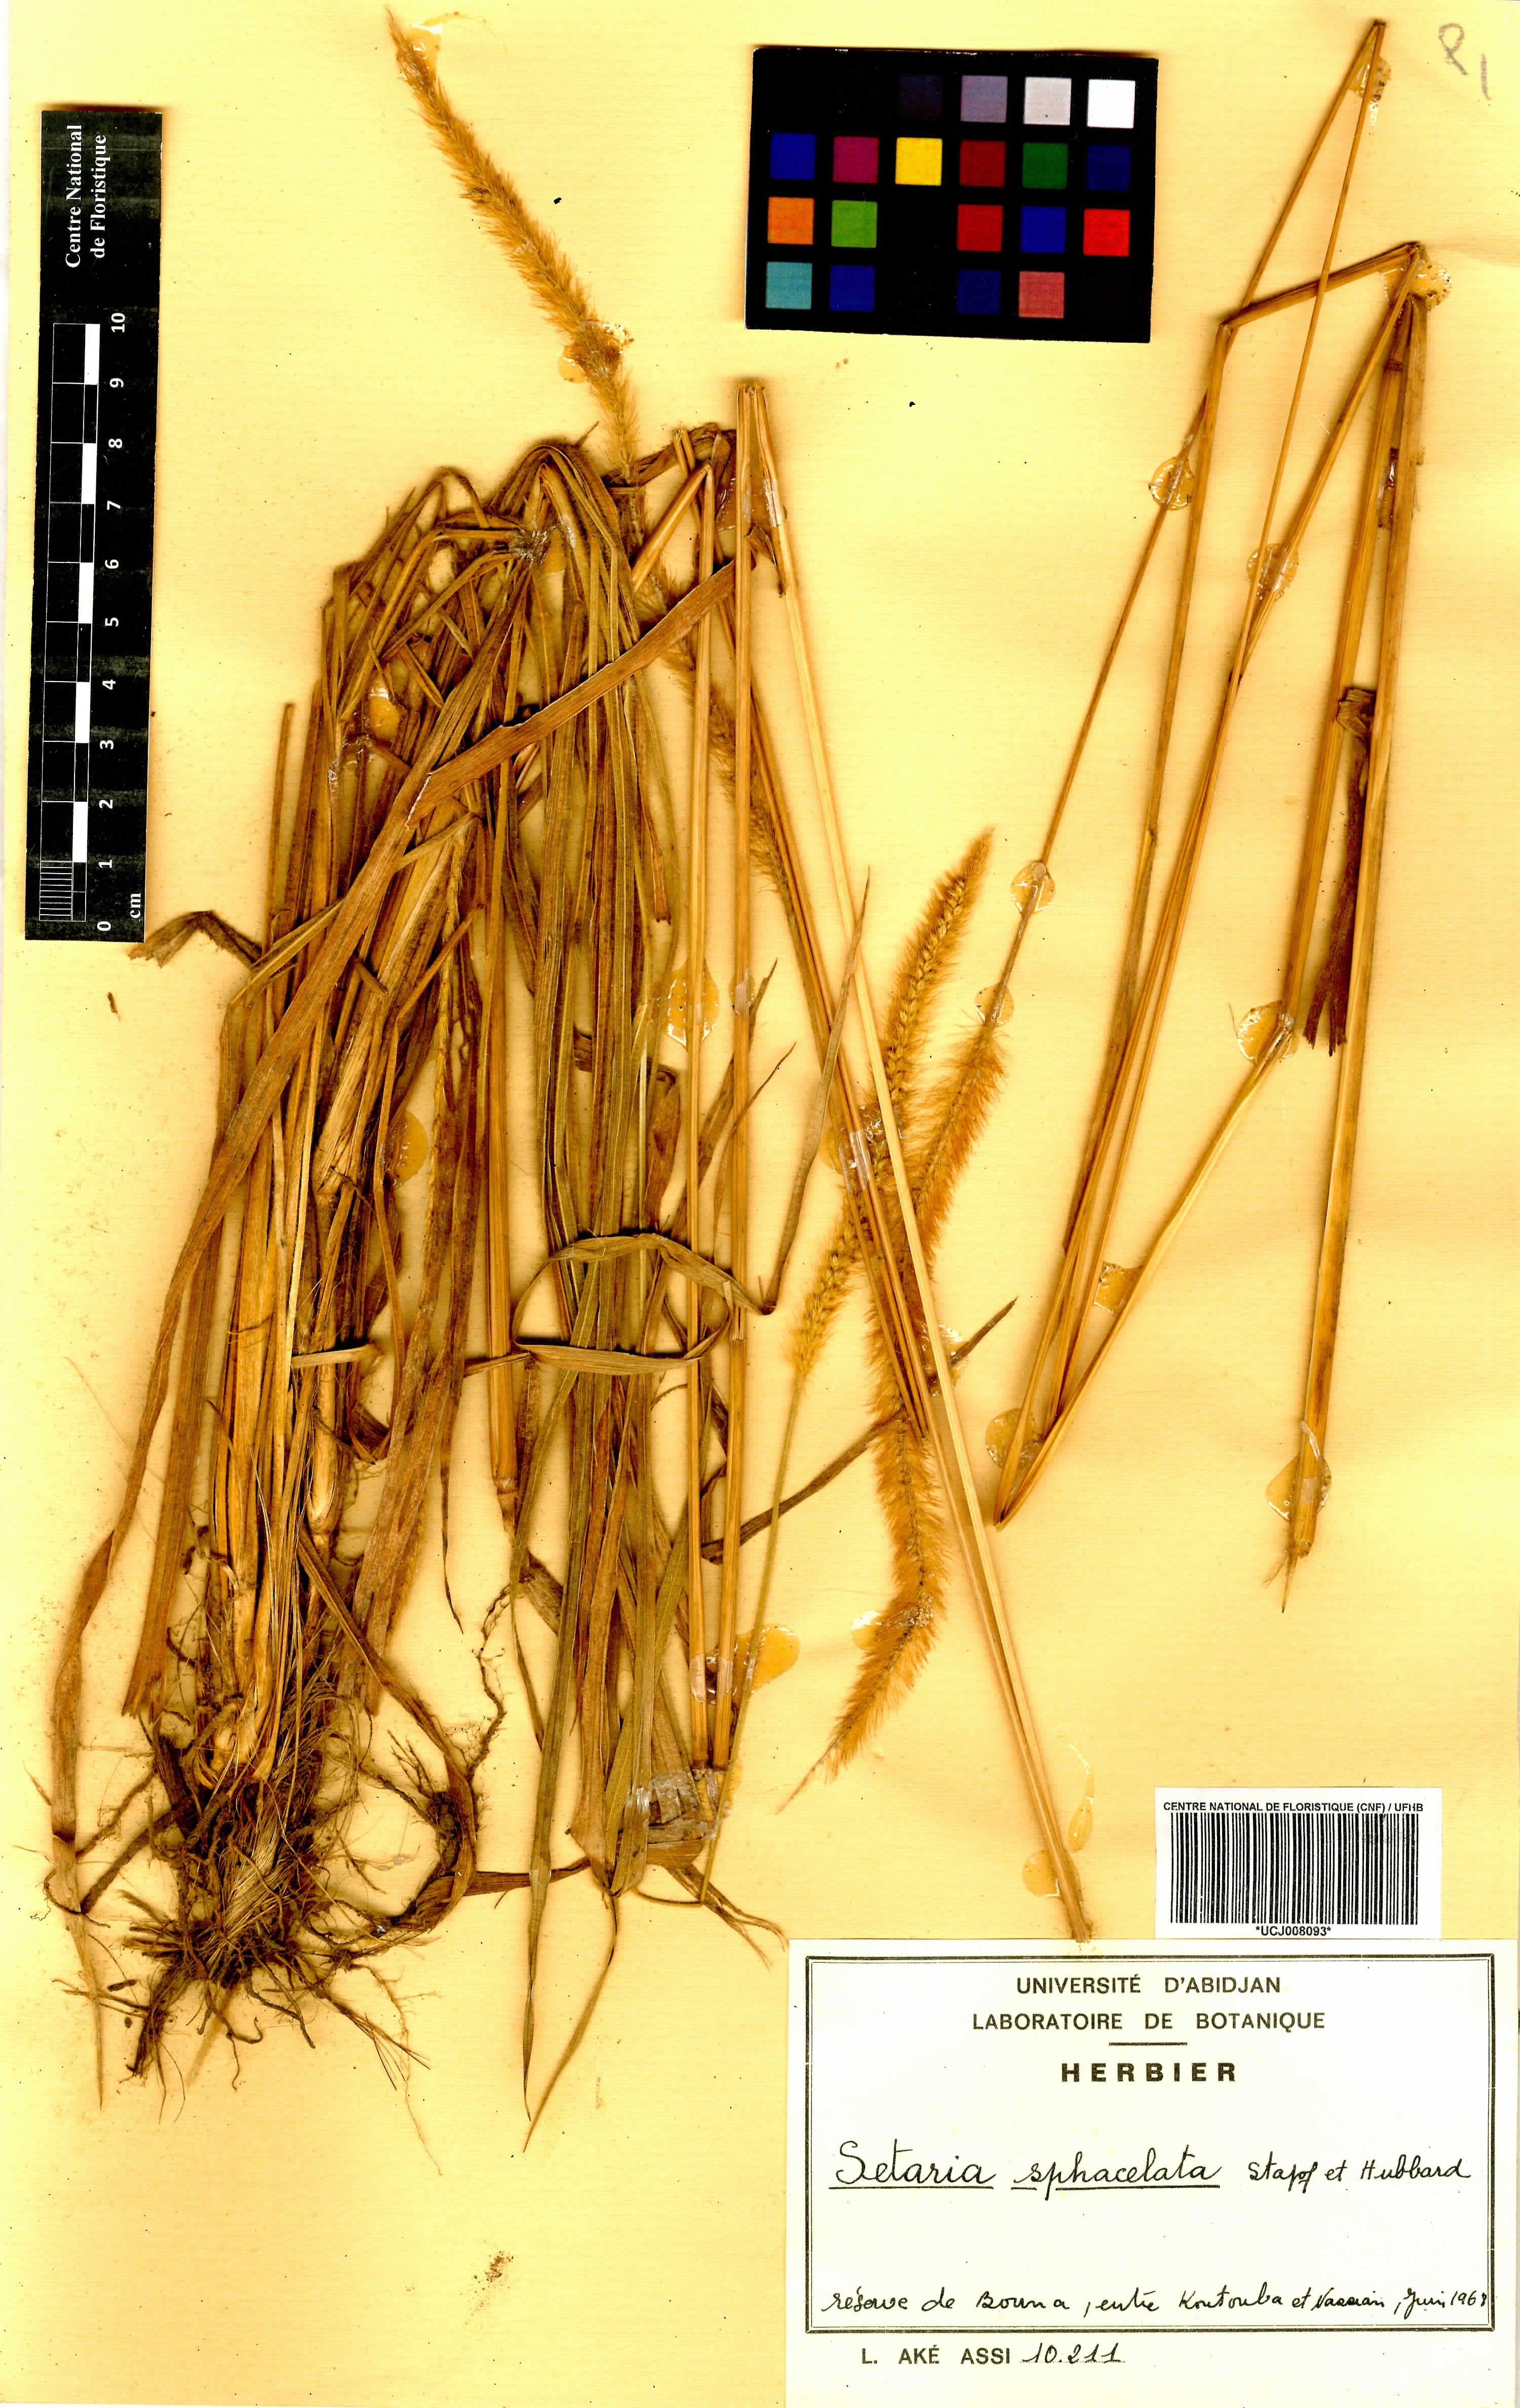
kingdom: Plantae
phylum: Tracheophyta
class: Liliopsida
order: Poales
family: Poaceae
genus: Setaria
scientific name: Setaria sphacelata
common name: African bristlegrass
